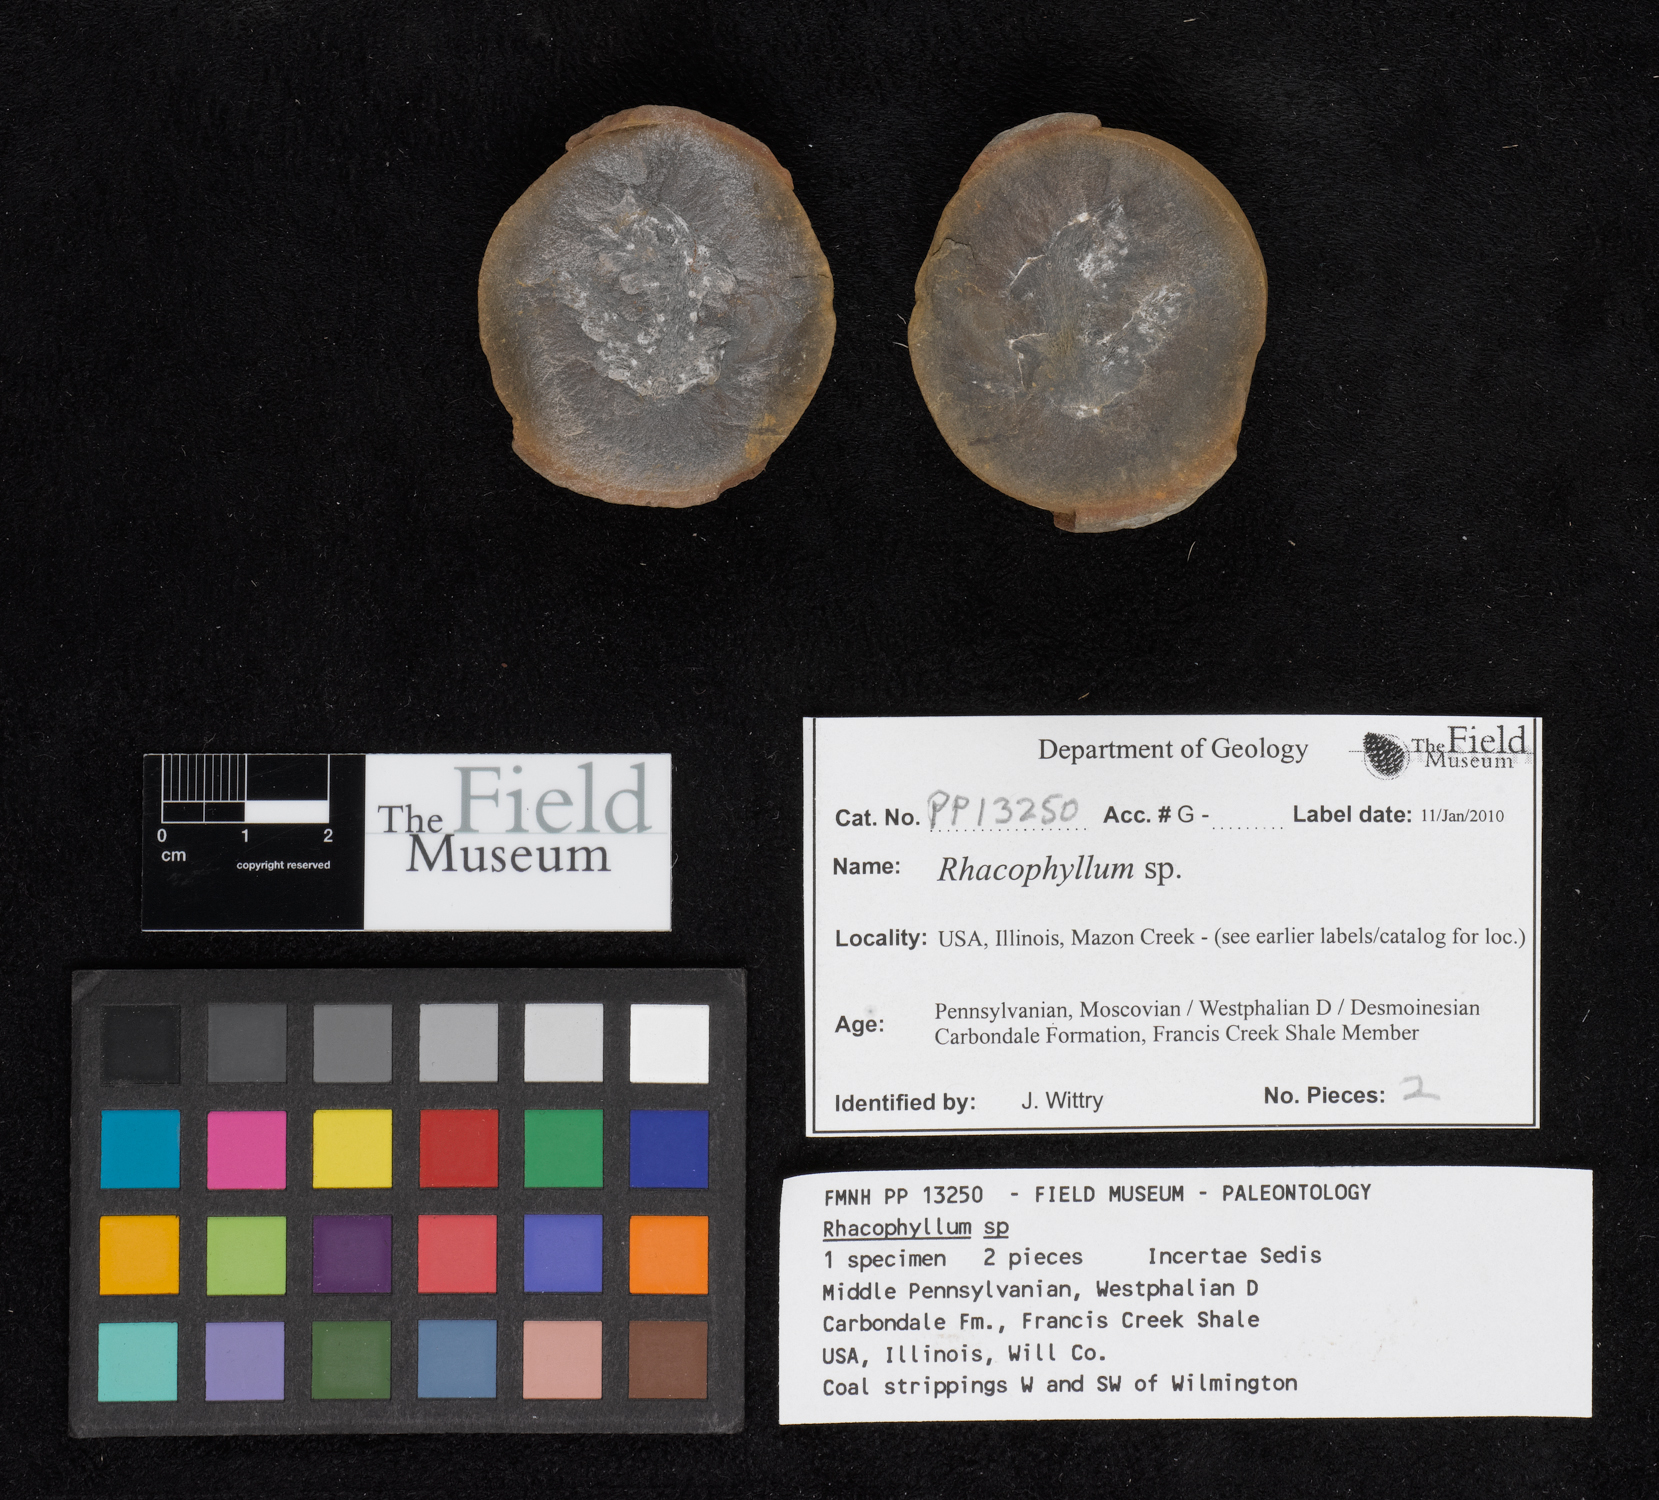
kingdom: Plantae
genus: Rhacophyllum
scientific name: Rhacophyllum
